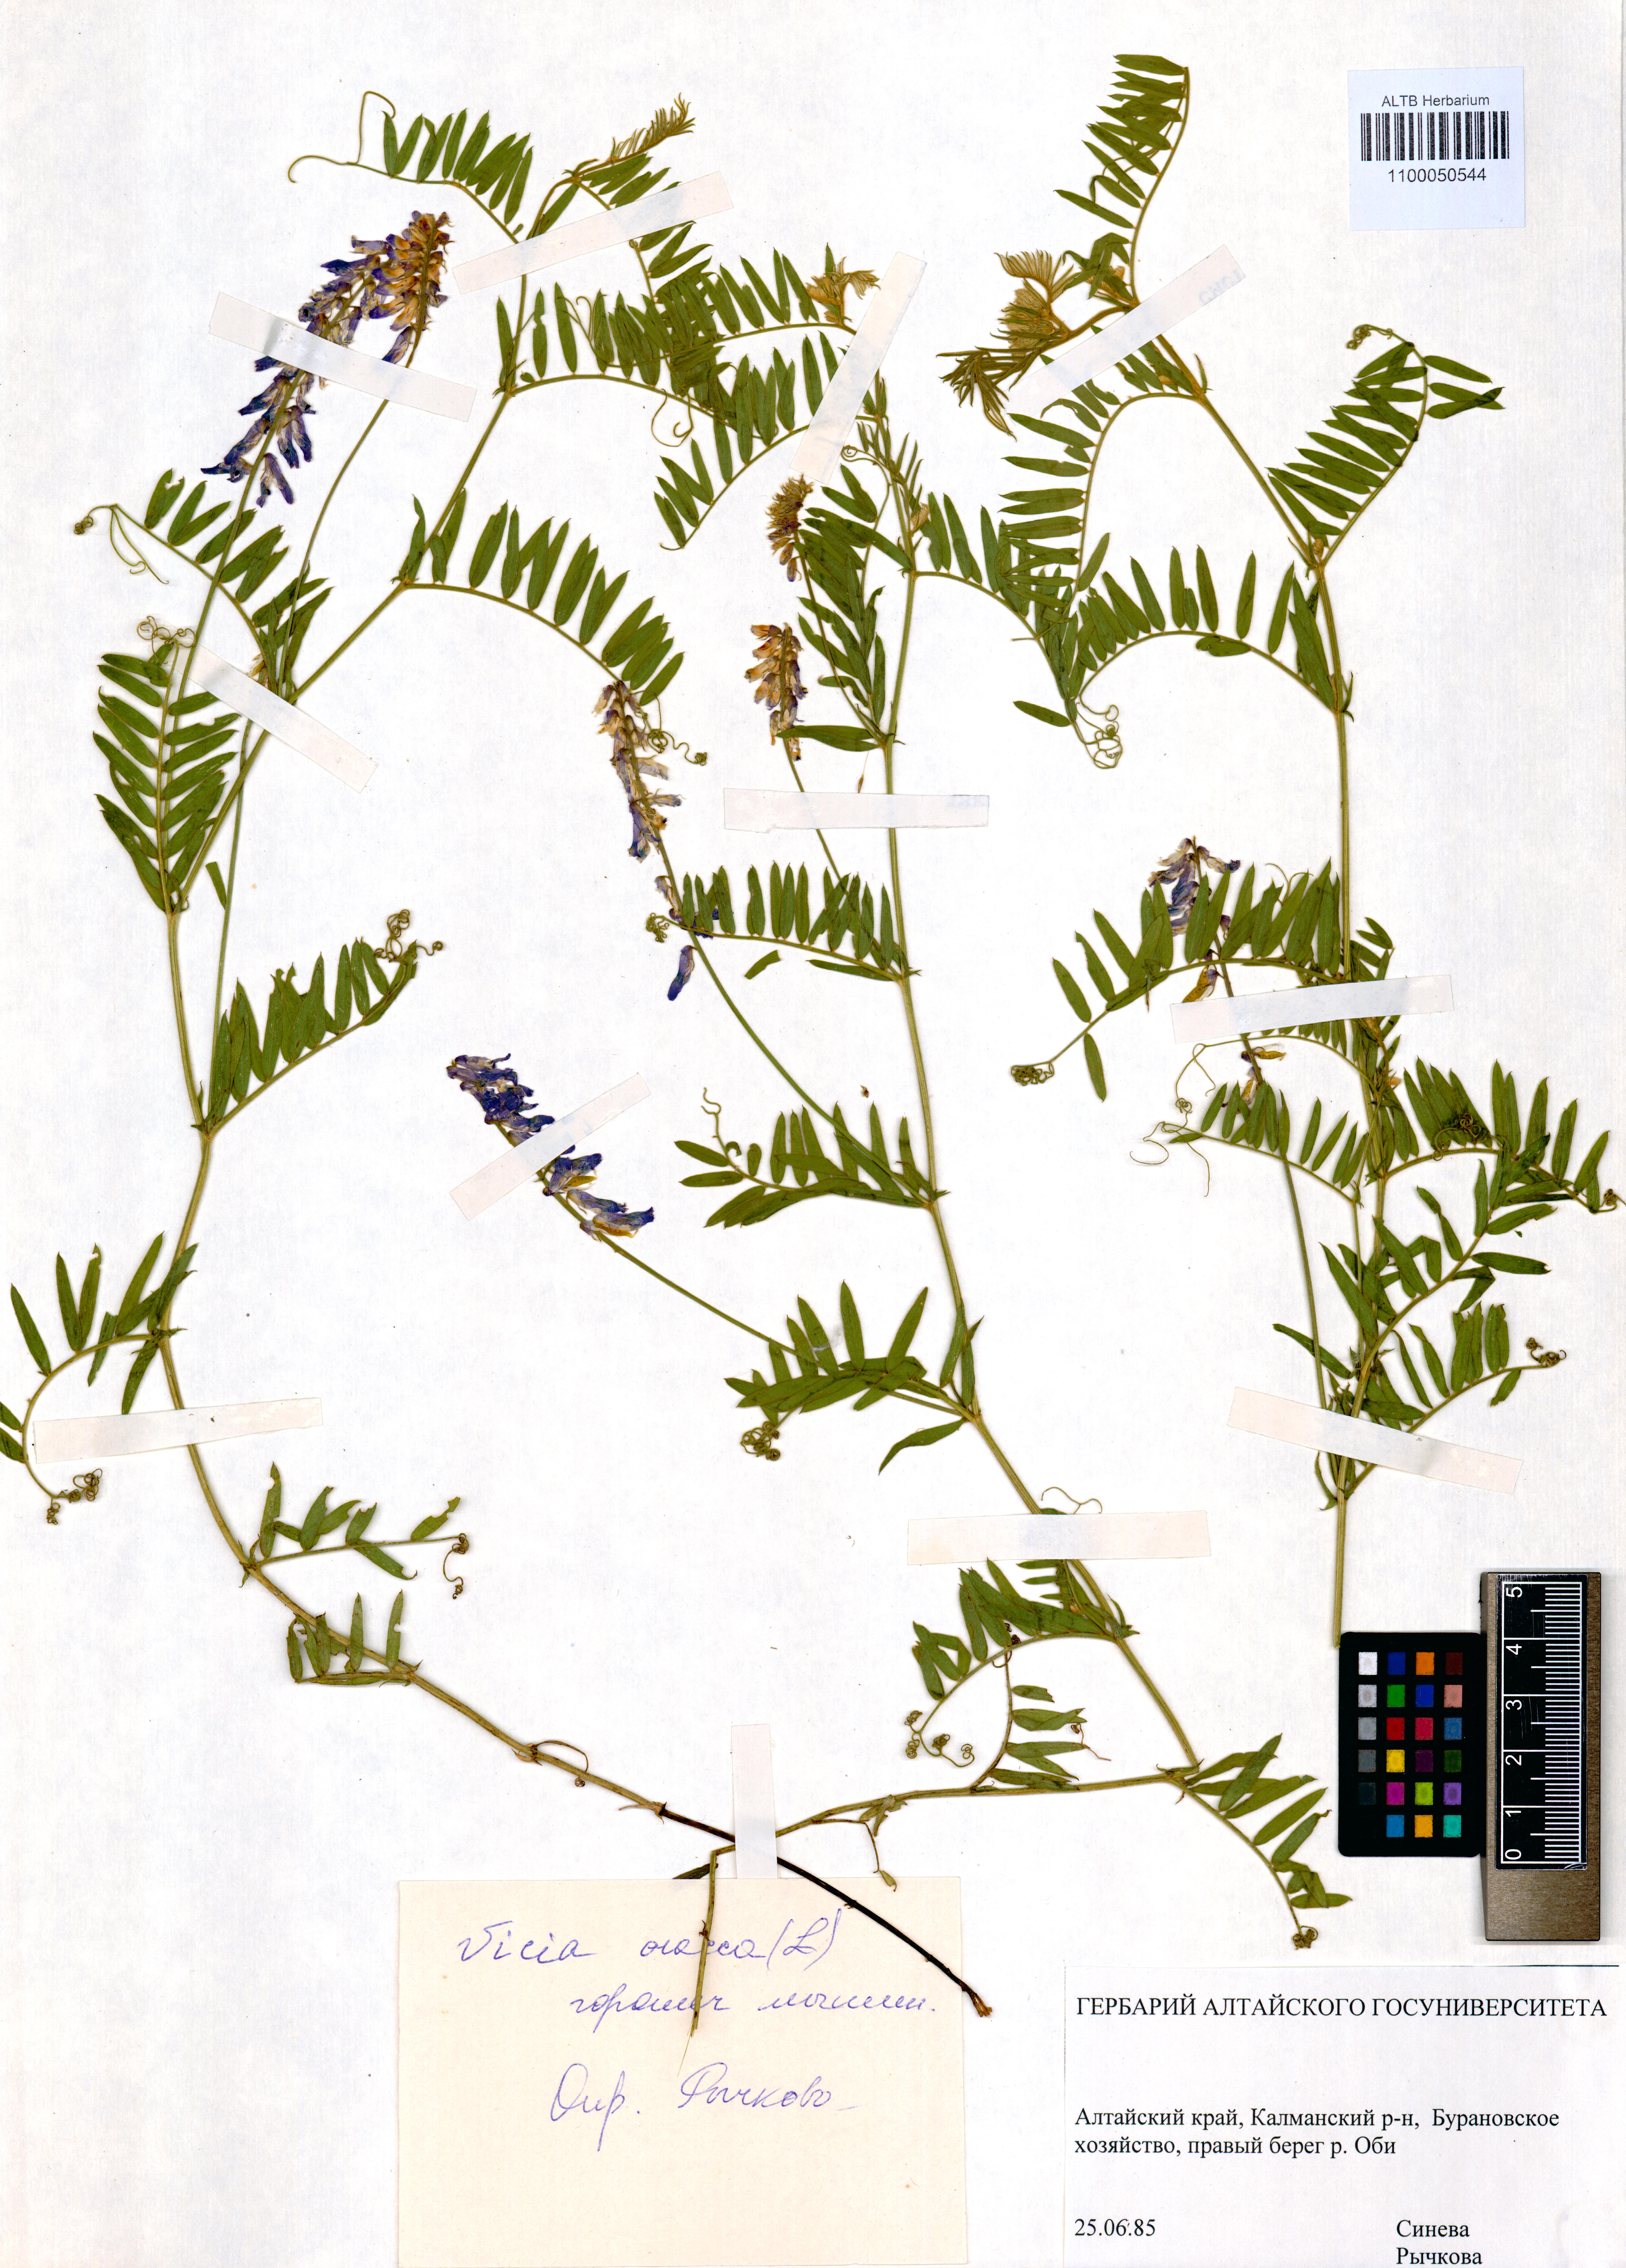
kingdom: Plantae
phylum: Tracheophyta
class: Magnoliopsida
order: Fabales
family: Fabaceae
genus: Vicia
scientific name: Vicia cracca
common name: Bird vetch
